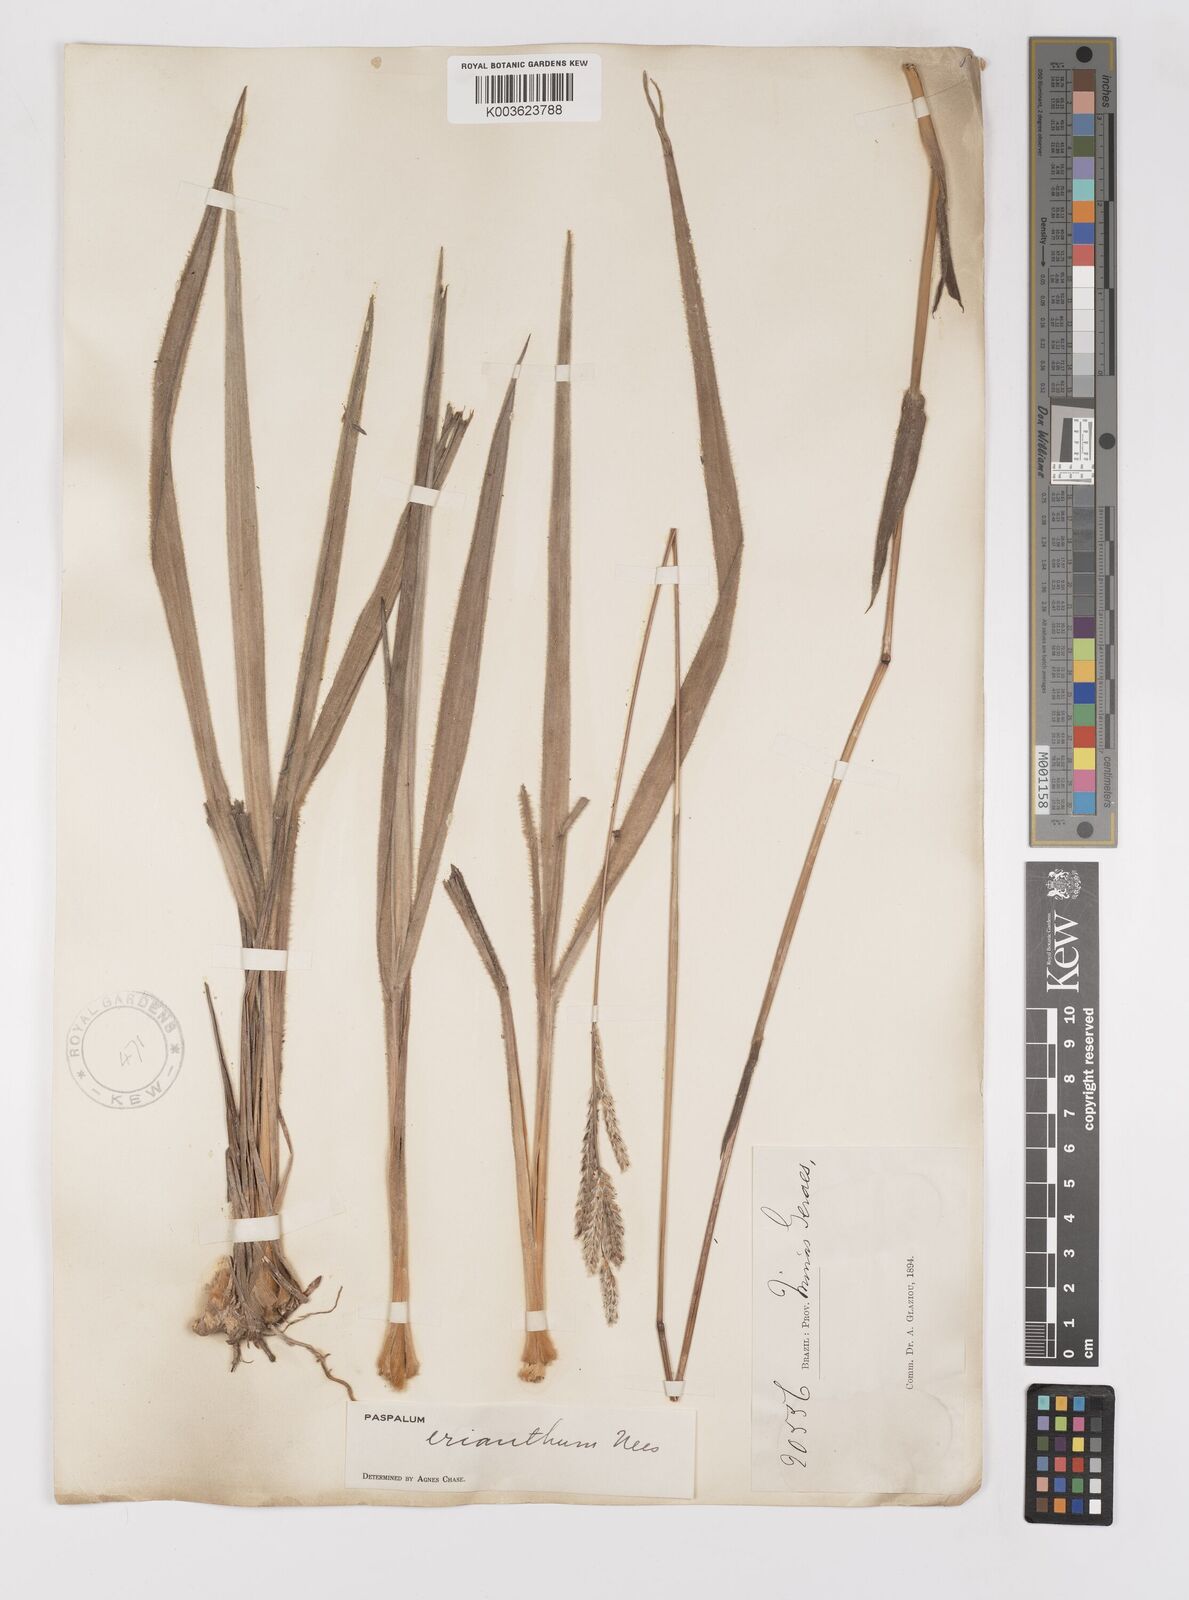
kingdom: Plantae
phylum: Tracheophyta
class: Liliopsida
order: Poales
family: Poaceae
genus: Paspalum
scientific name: Paspalum erianthum
